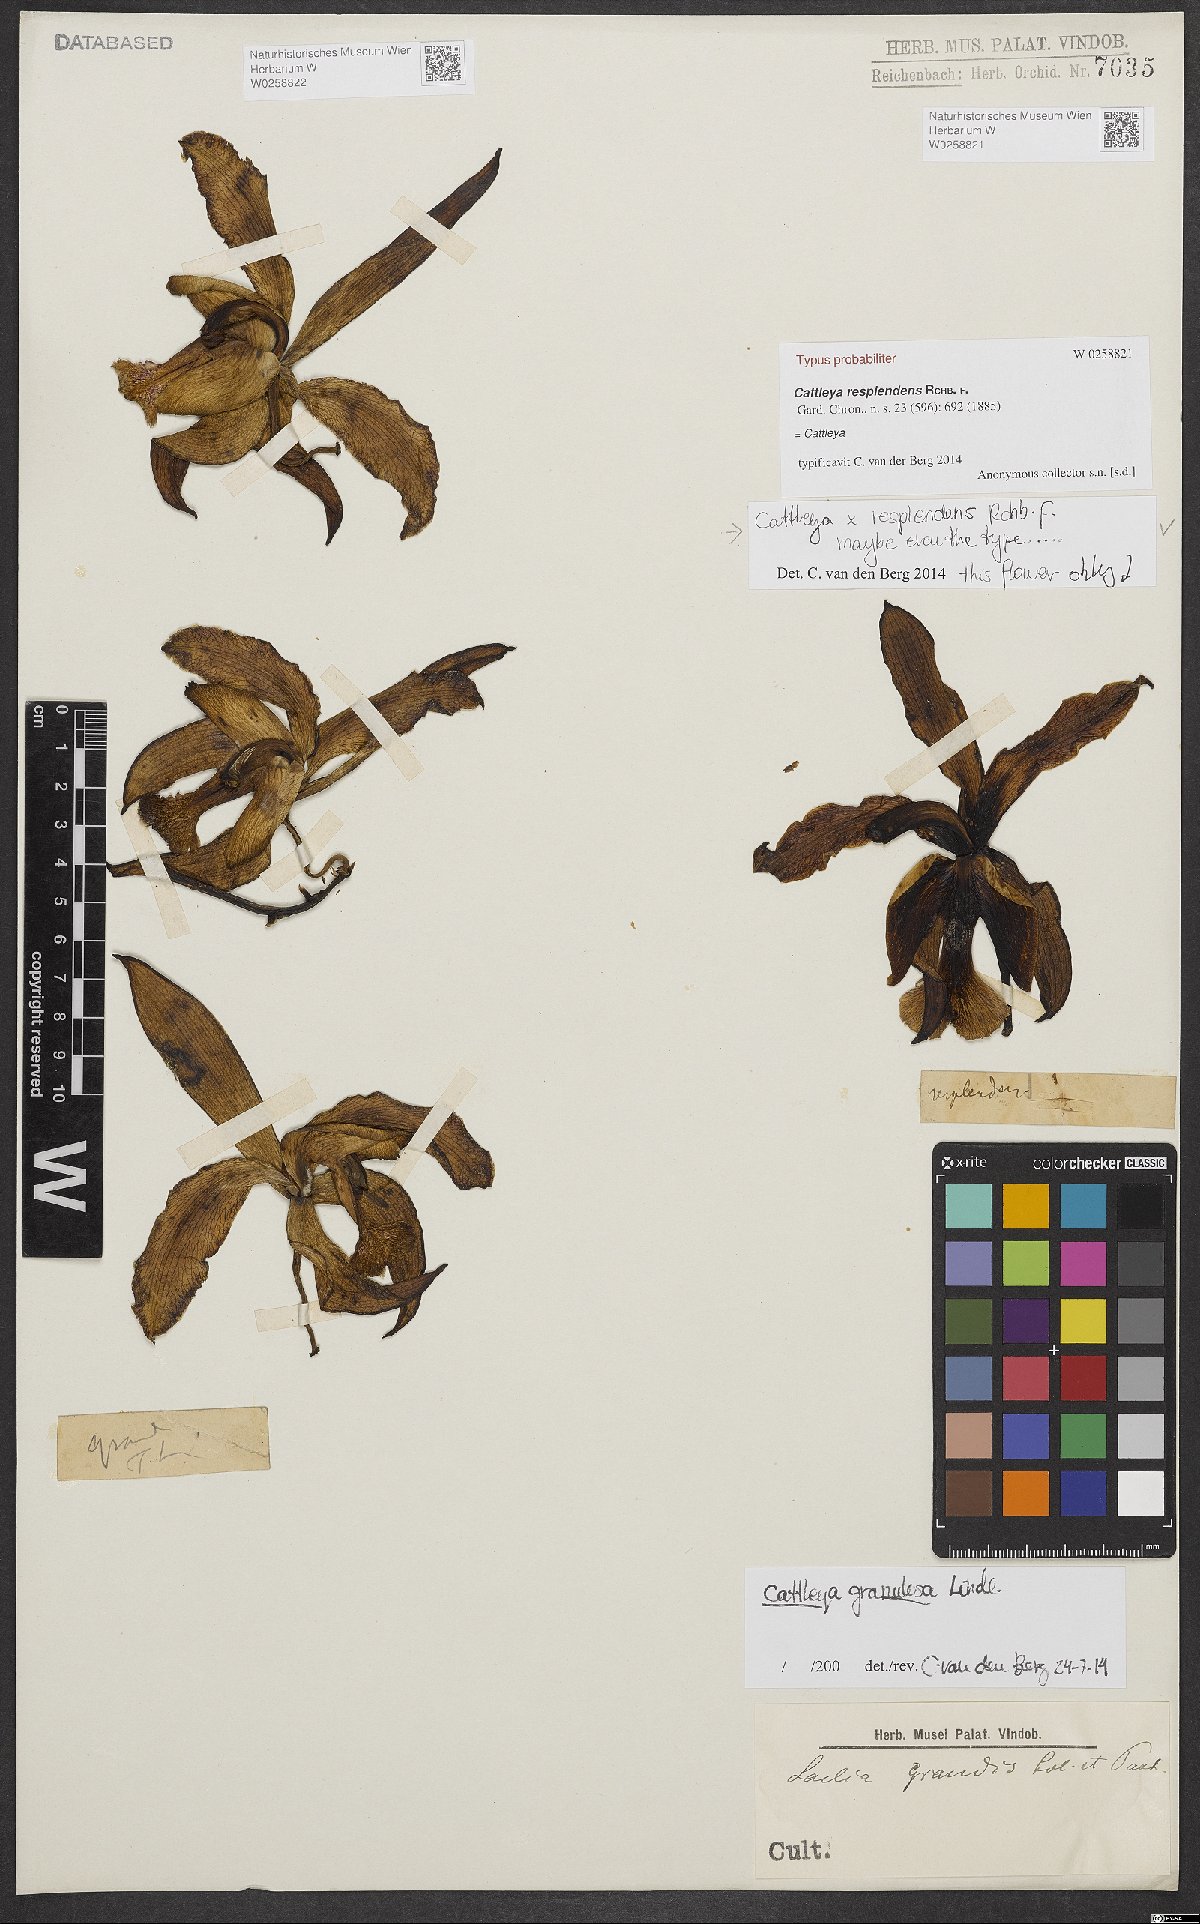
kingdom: Plantae
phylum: Tracheophyta
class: Liliopsida
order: Asparagales
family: Orchidaceae
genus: Cattleya
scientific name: Cattleya granulosa
